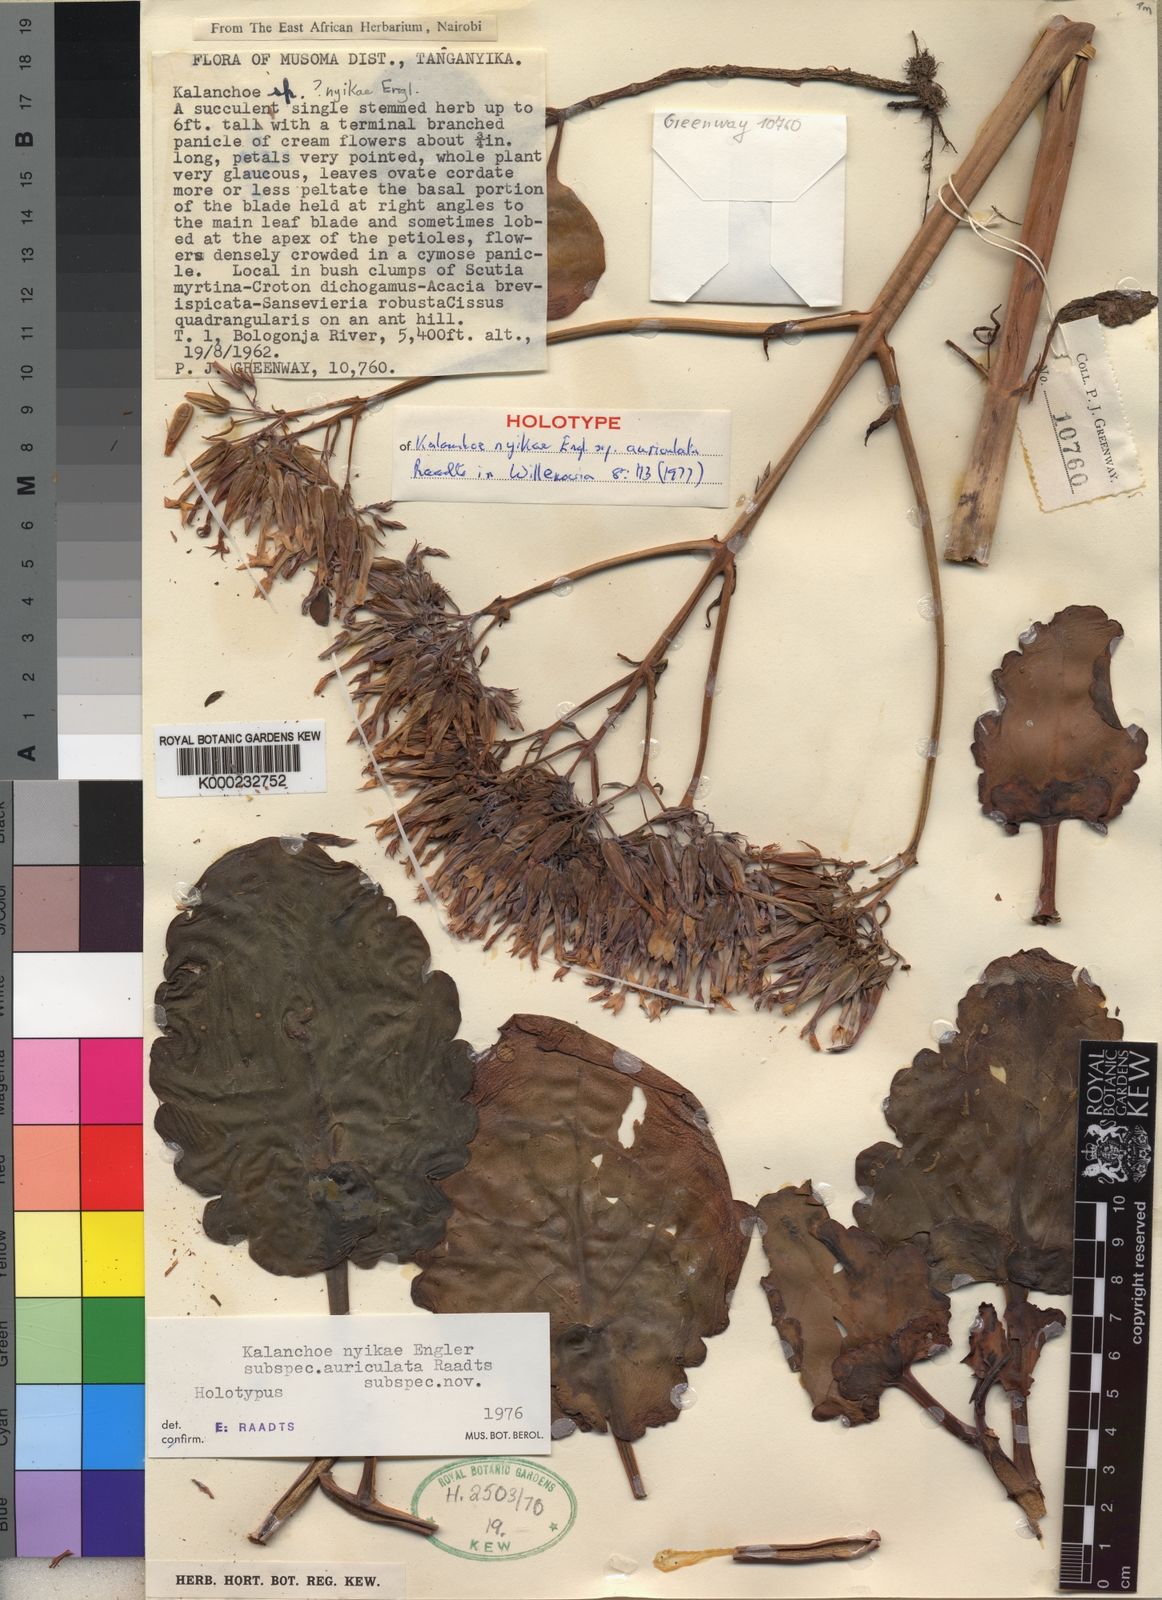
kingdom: Plantae
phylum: Tracheophyta
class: Magnoliopsida
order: Saxifragales
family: Crassulaceae
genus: Kalanchoe
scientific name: Kalanchoe auriculata
